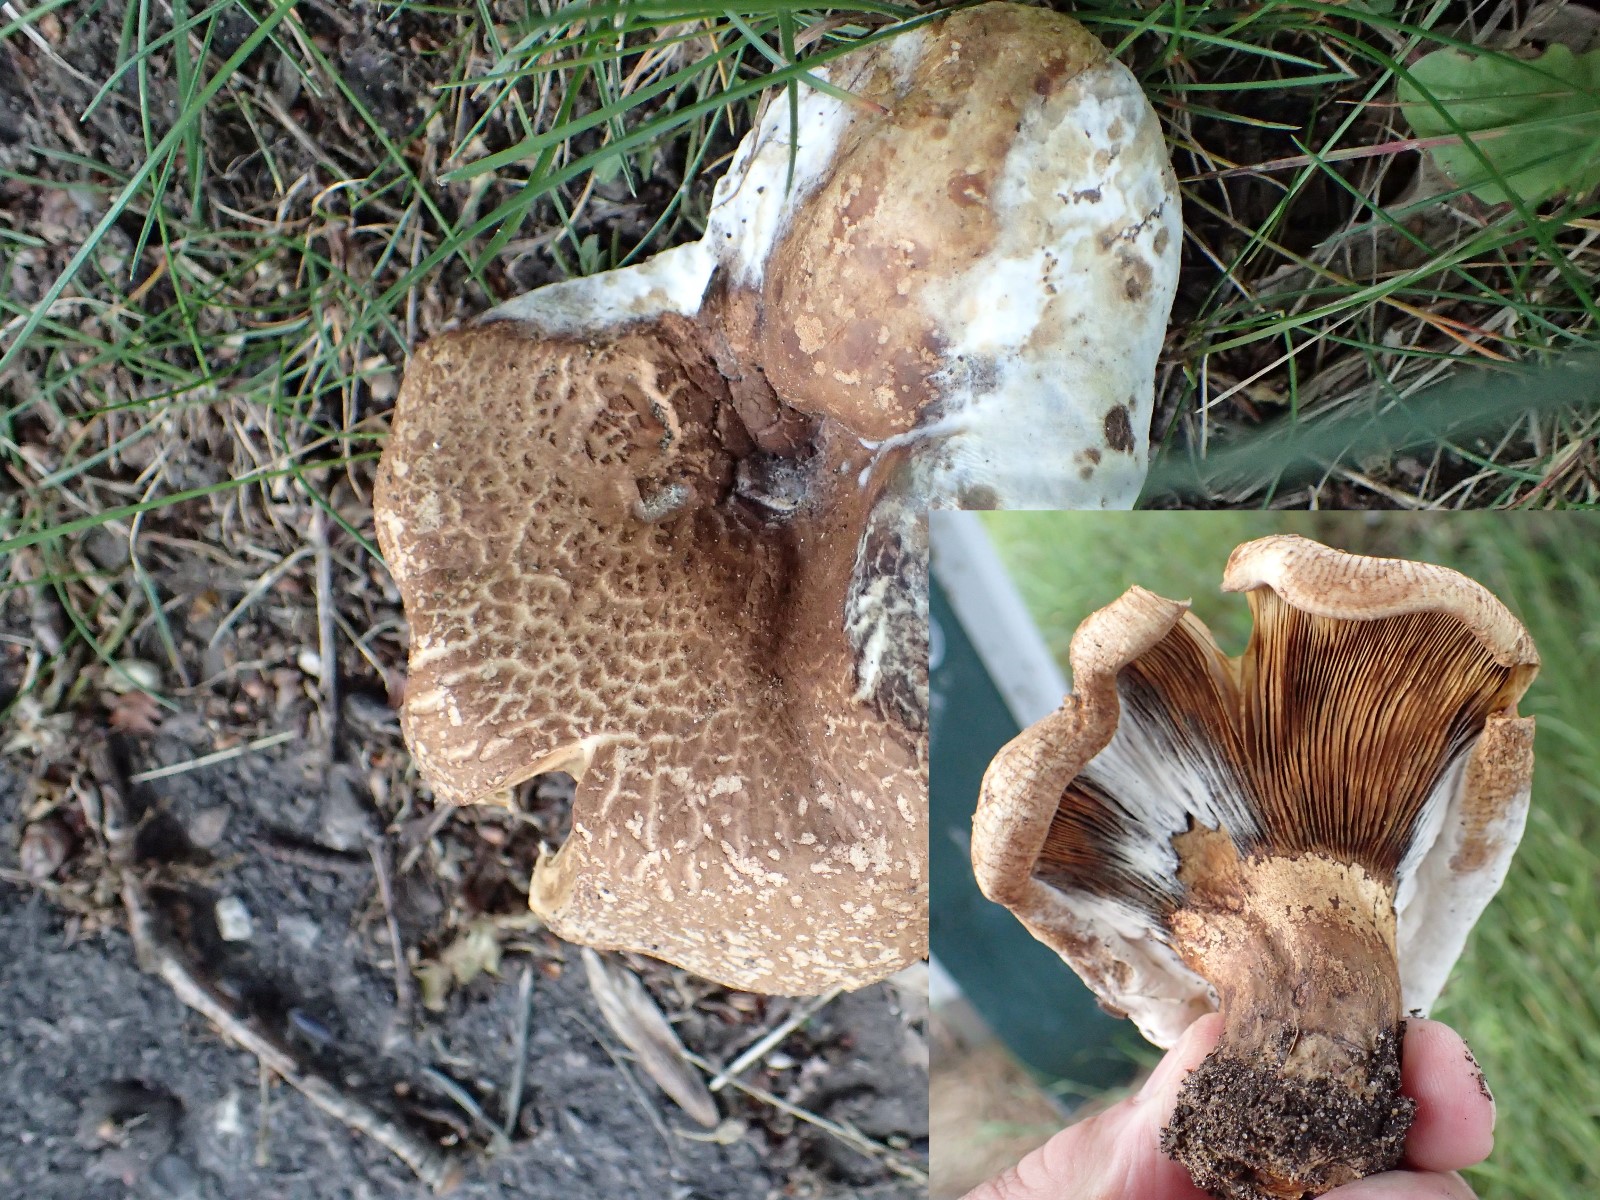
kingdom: Fungi
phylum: Basidiomycota
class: Agaricomycetes
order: Boletales
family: Paxillaceae
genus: Paxillus
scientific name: Paxillus ammoniavirescens
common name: olivensporet netbladhat
